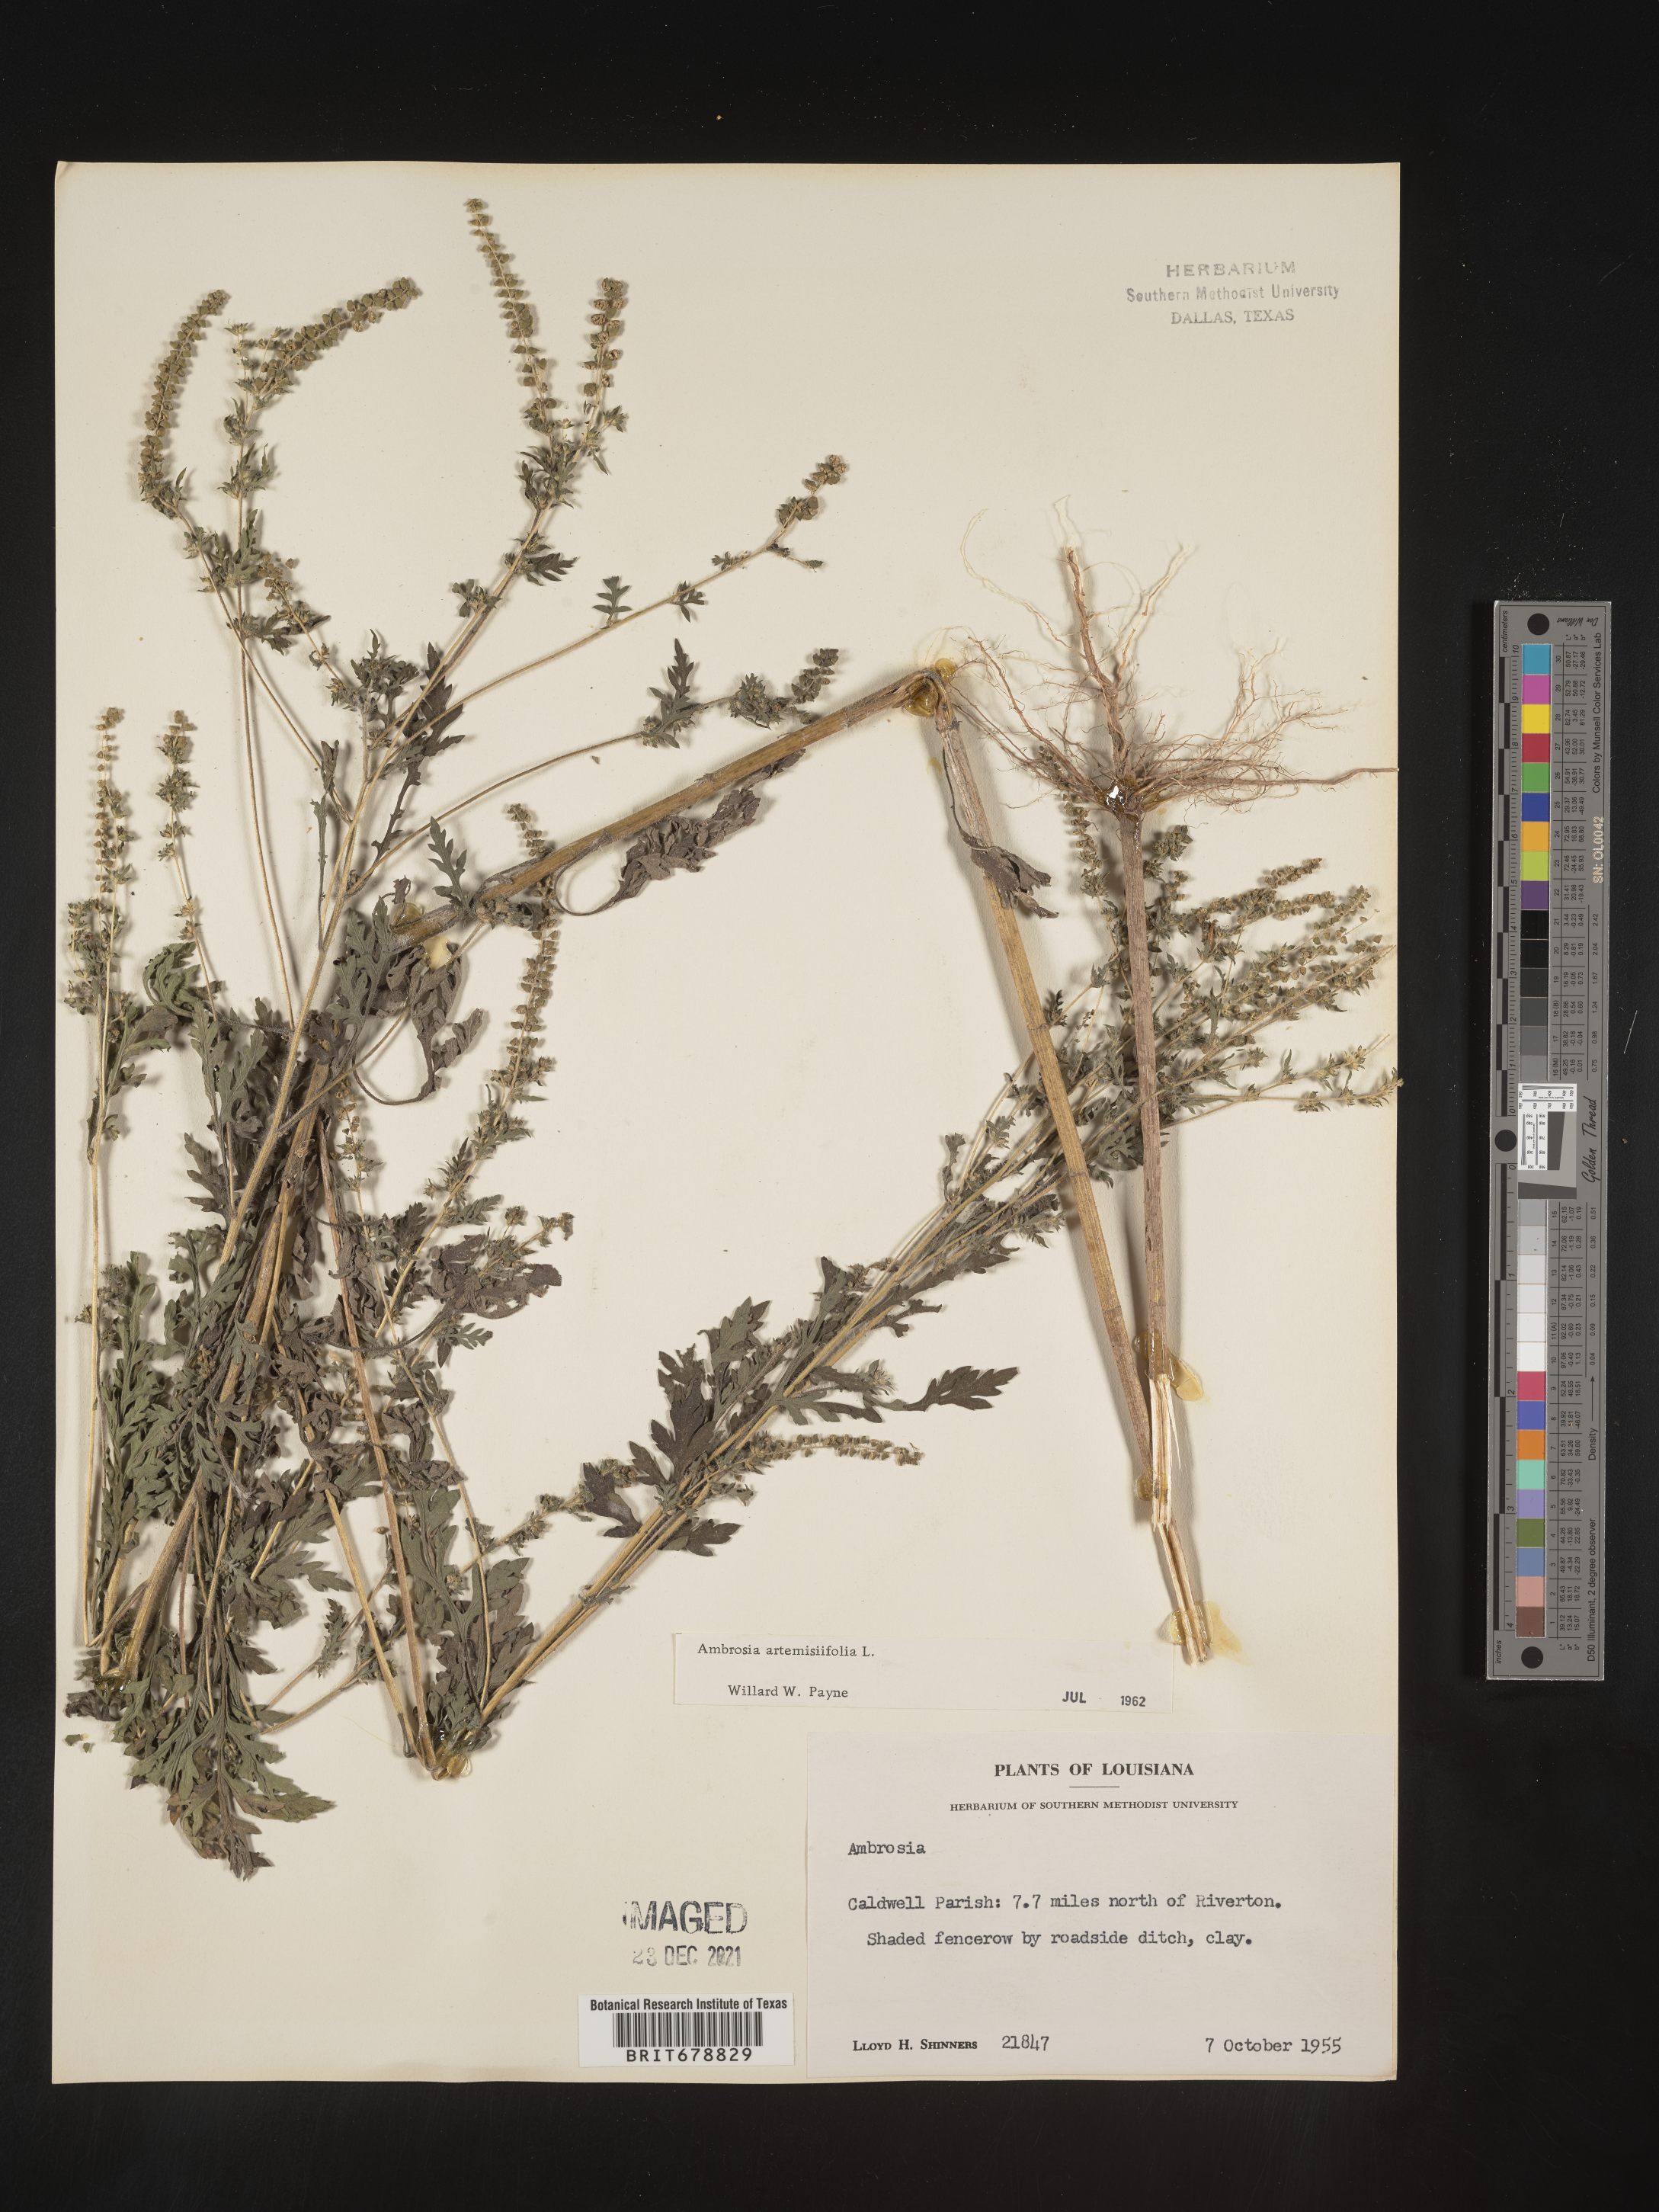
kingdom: Plantae
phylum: Tracheophyta
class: Magnoliopsida
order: Asterales
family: Asteraceae
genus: Ambrosia
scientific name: Ambrosia artemisiifolia
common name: Annual ragweed
